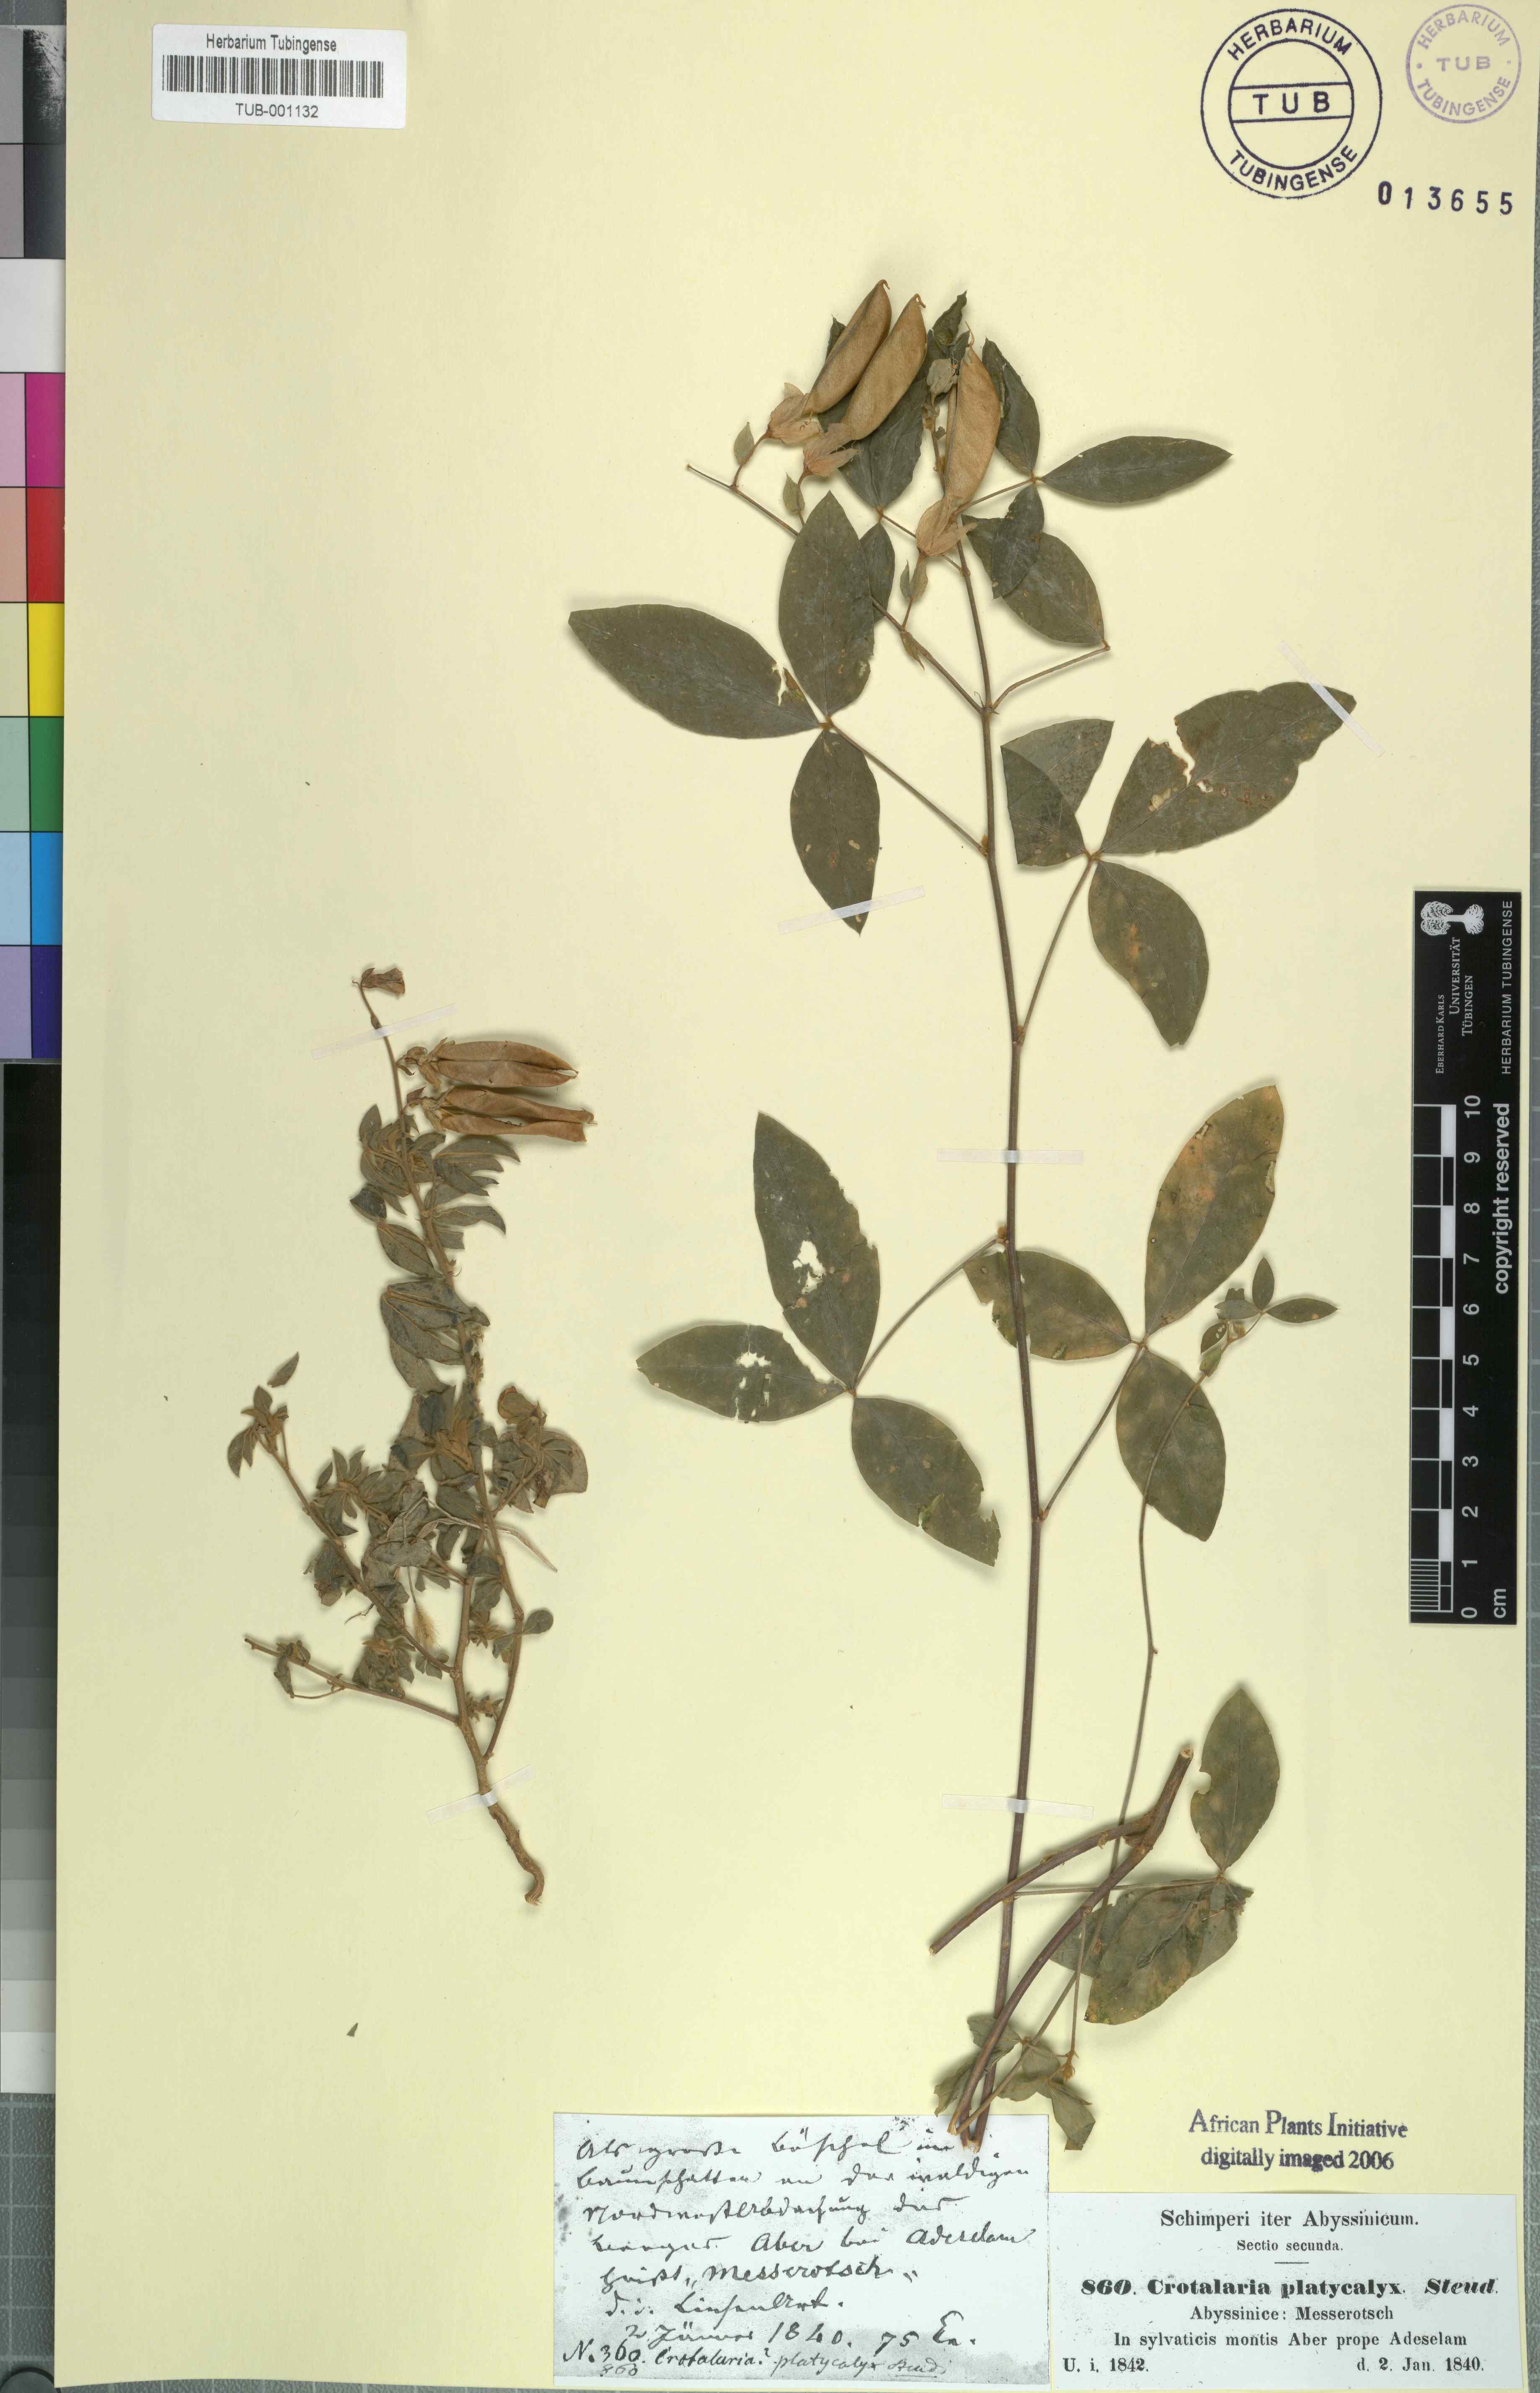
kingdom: Plantae
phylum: Tracheophyta
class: Magnoliopsida
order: Fabales
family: Fabaceae
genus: Crotalaria
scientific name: Crotalaria quartiniana
